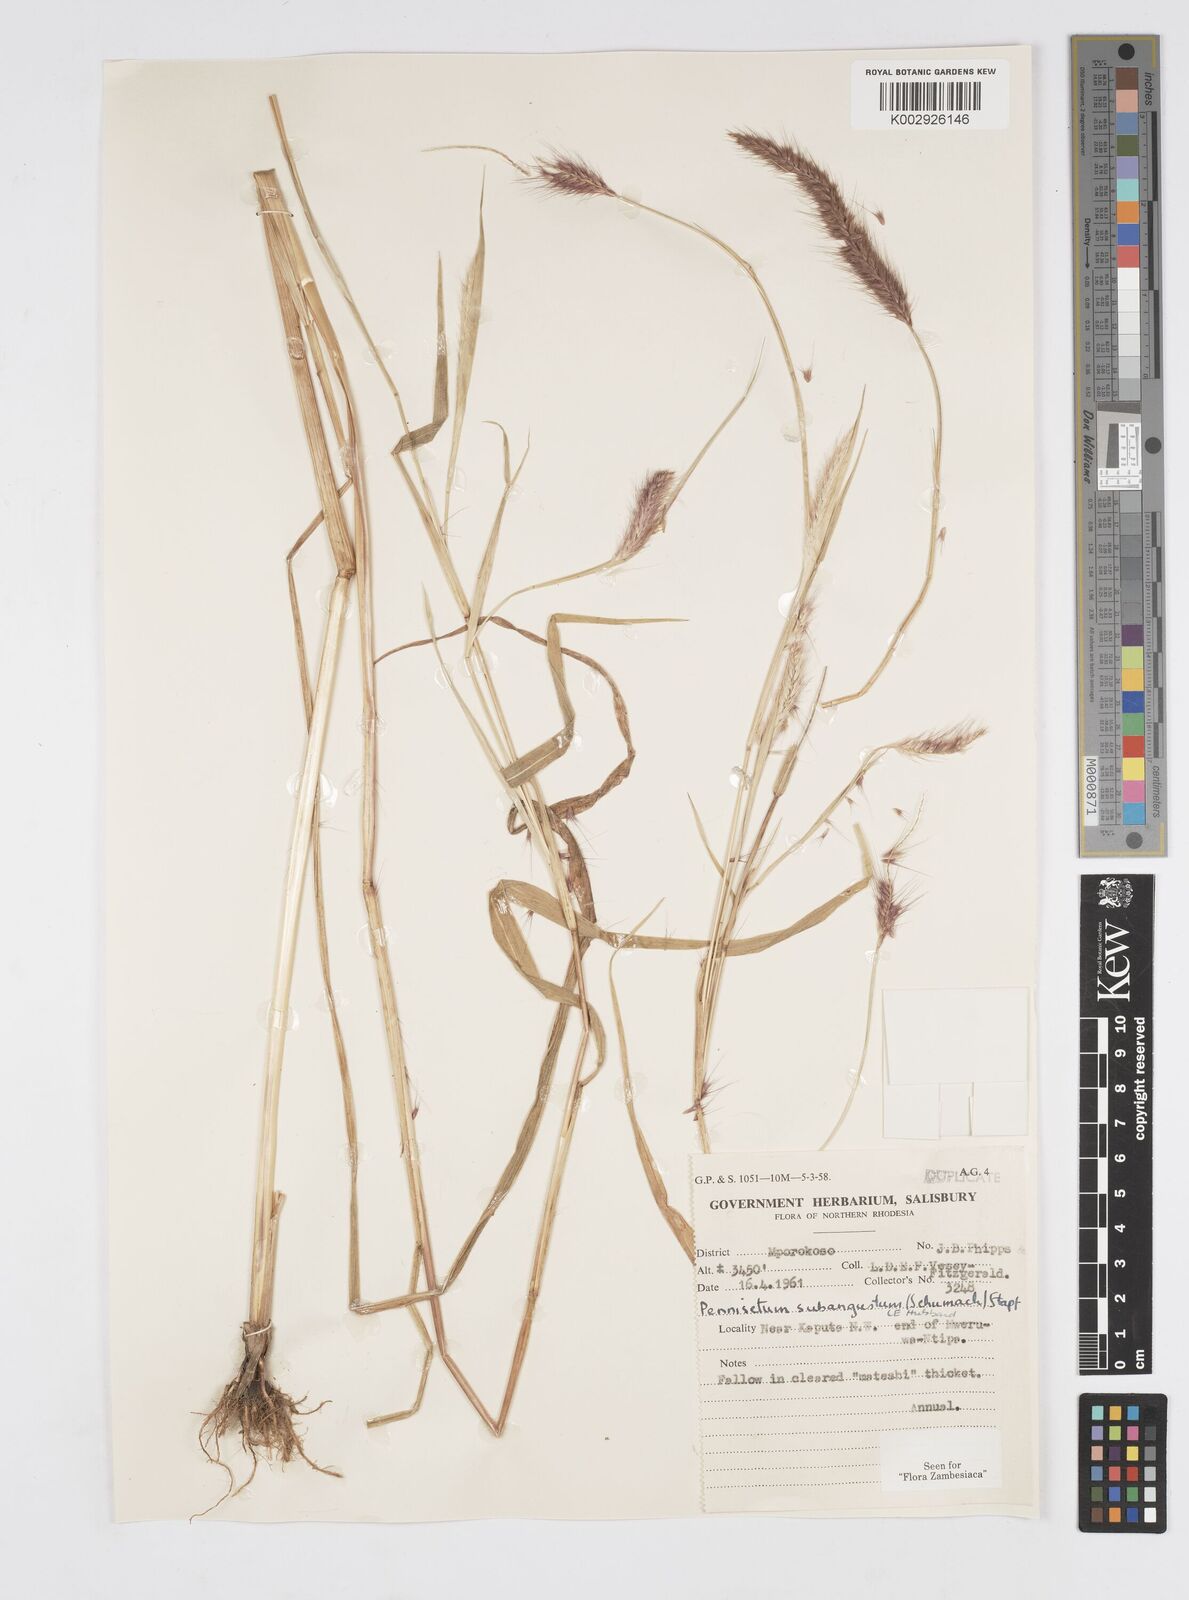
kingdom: Plantae
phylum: Tracheophyta
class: Liliopsida
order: Poales
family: Poaceae
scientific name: Poaceae
